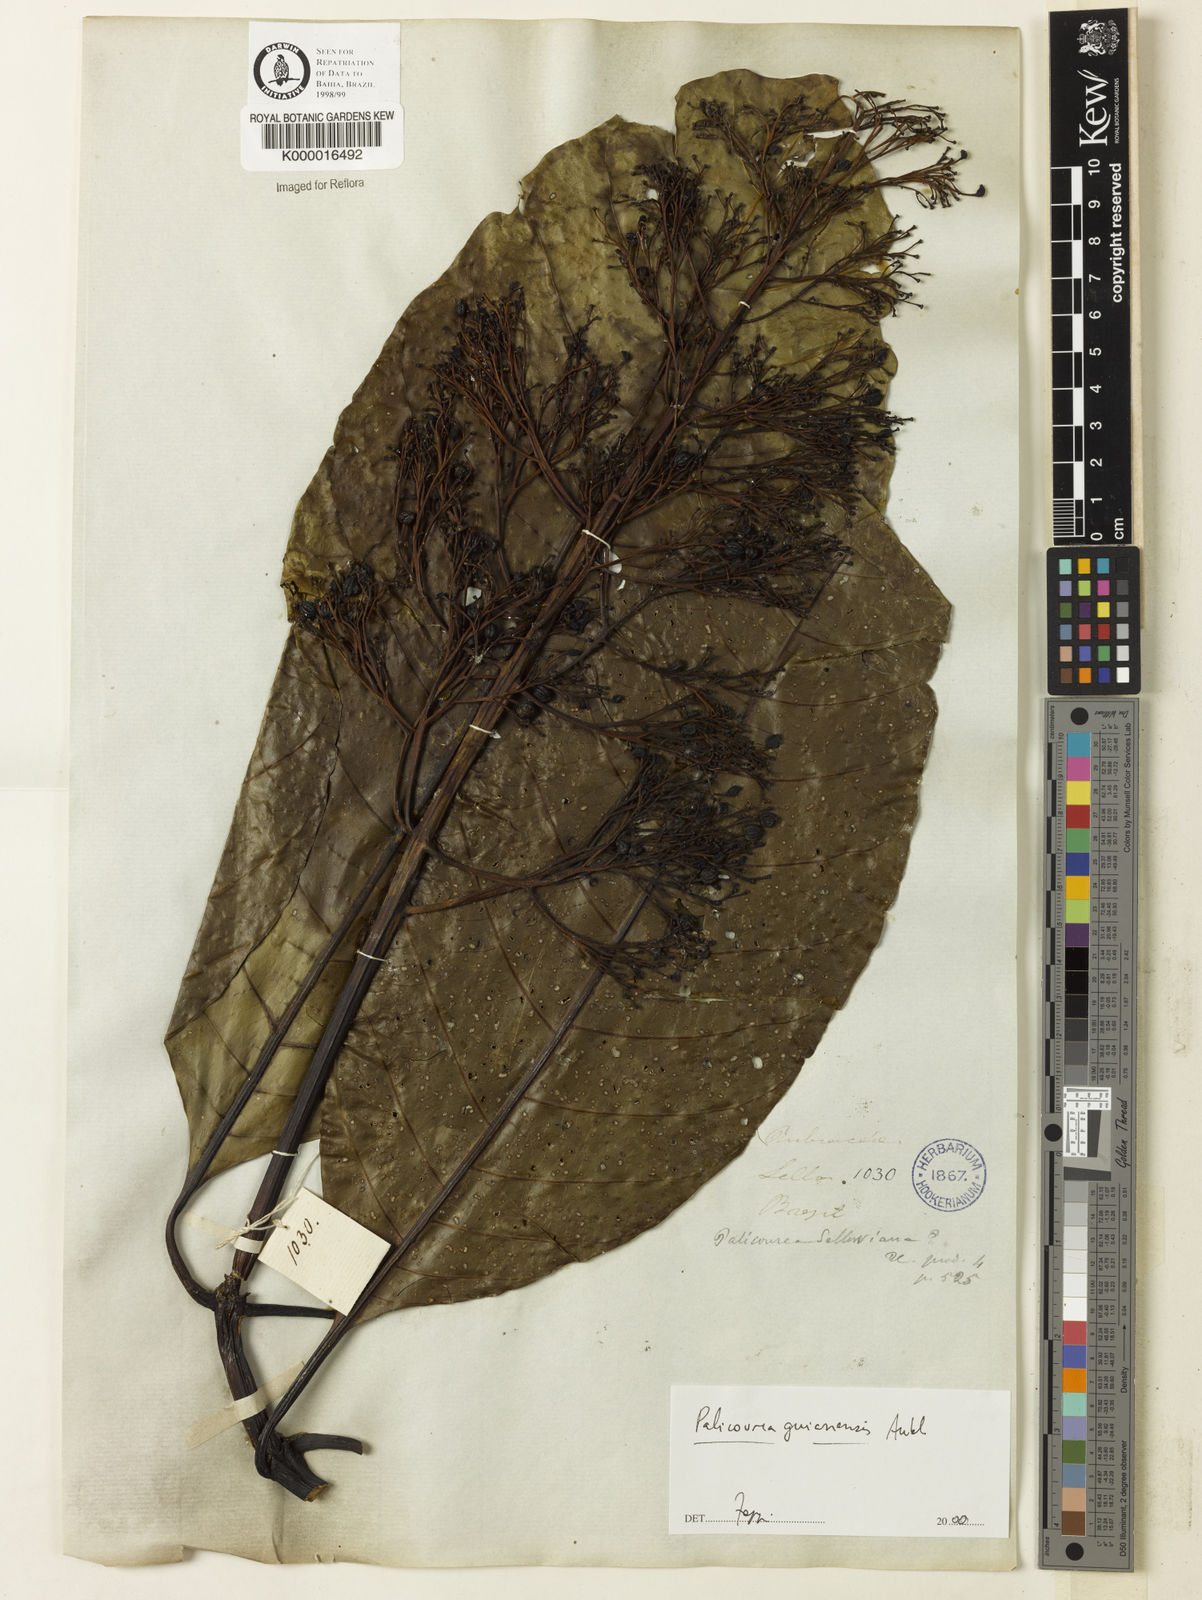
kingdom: Plantae
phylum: Tracheophyta
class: Magnoliopsida
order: Gentianales
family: Rubiaceae
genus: Psychotria
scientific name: Psychotria
